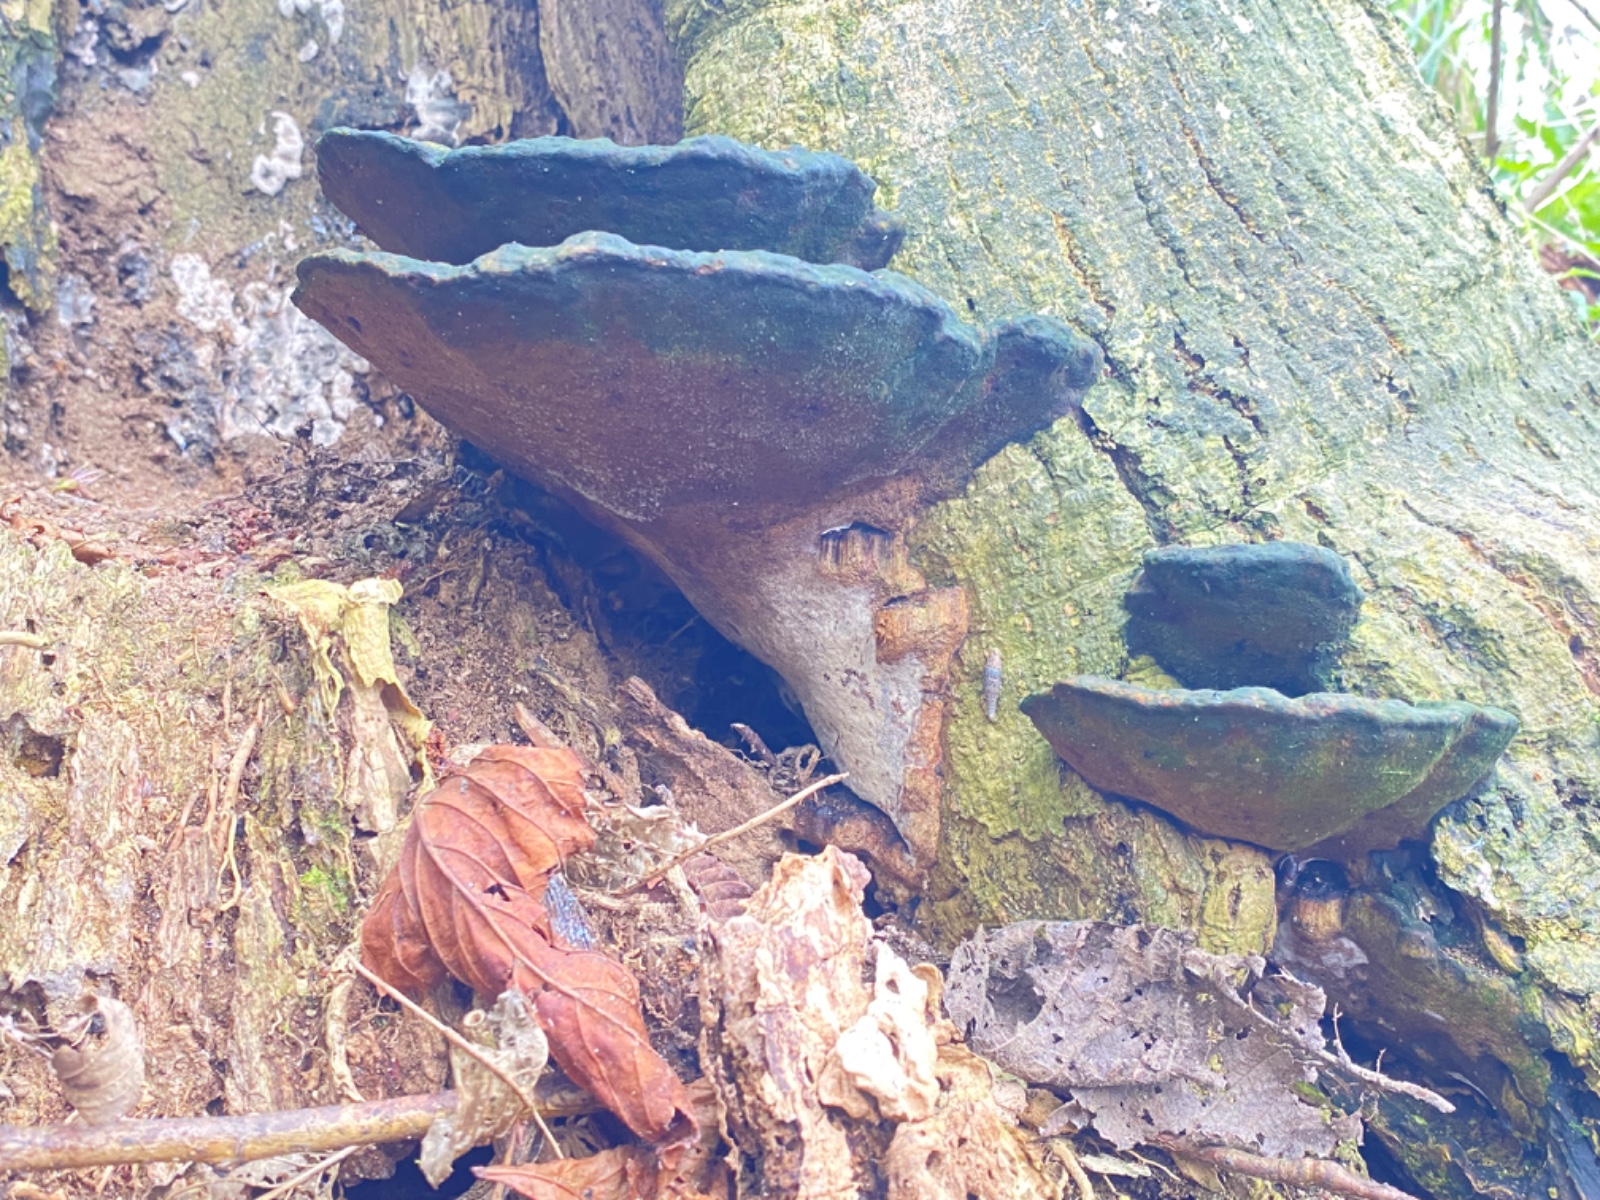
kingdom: Fungi
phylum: Basidiomycota
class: Agaricomycetes
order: Polyporales
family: Polyporaceae
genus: Vanderbylia
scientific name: Vanderbylia fraxinea
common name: stor kanelporesvamp
